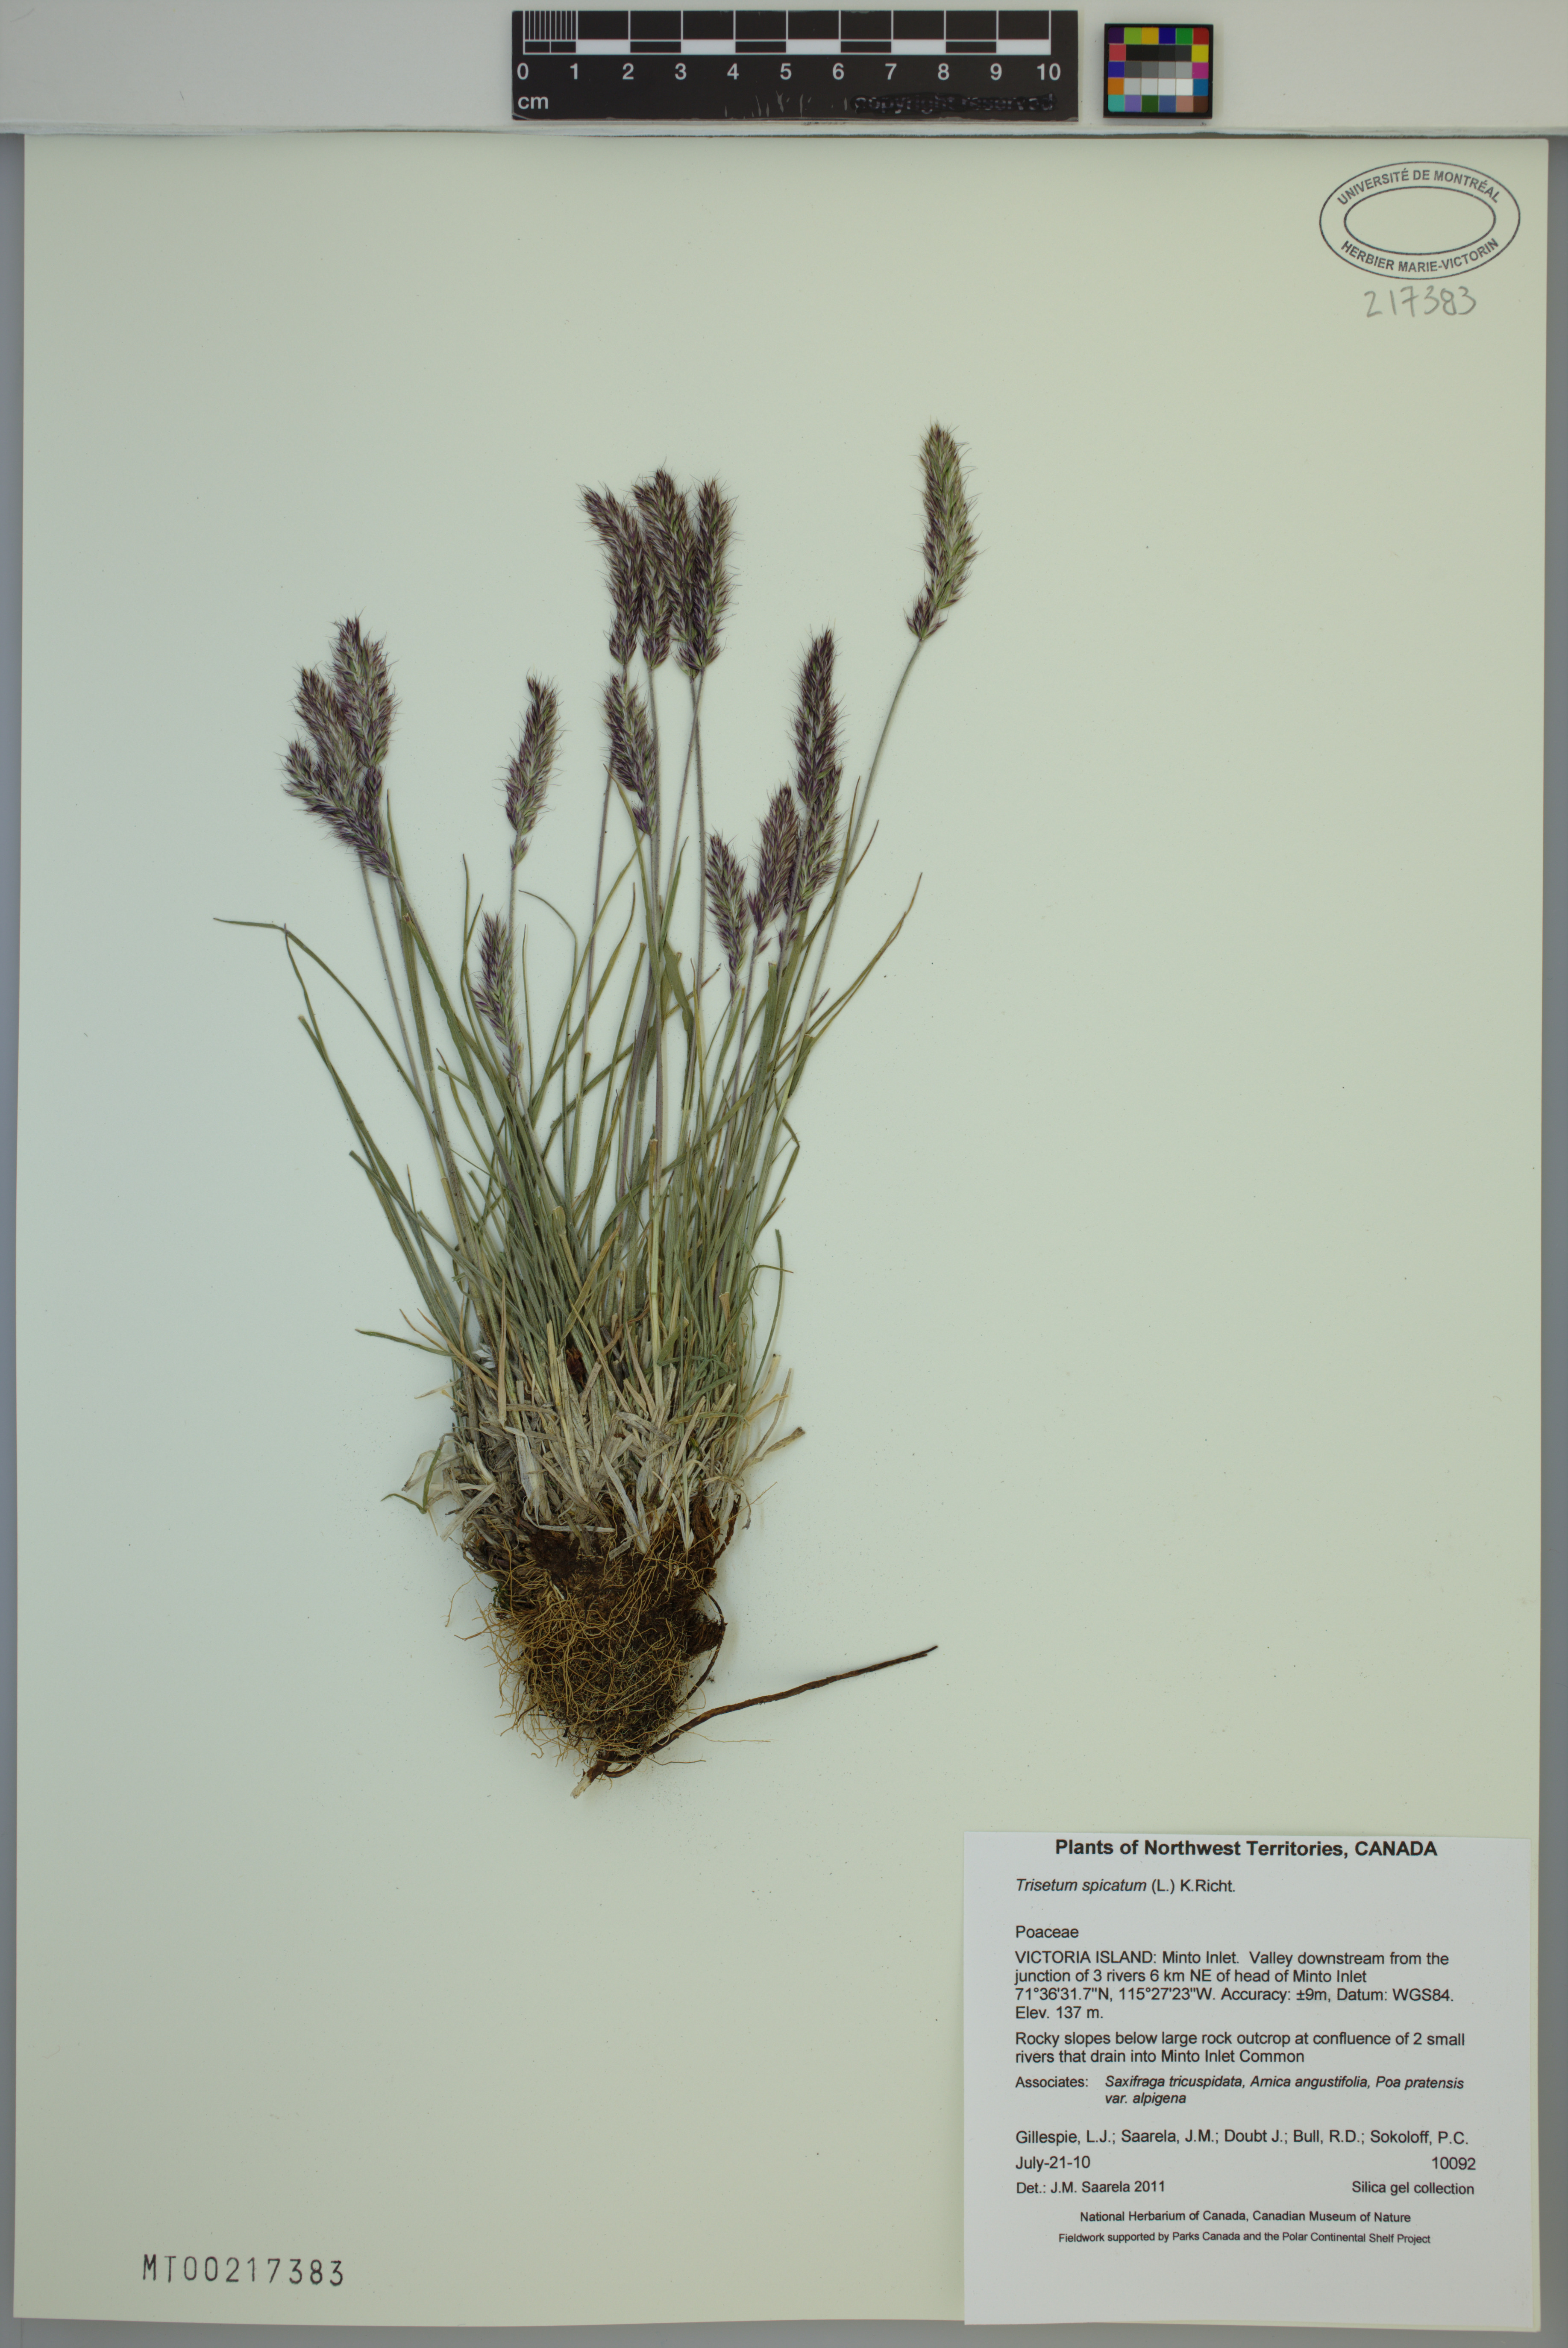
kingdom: Plantae
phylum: Tracheophyta
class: Liliopsida
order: Poales
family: Poaceae
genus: Koeleria
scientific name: Koeleria spicata
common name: Mountain trisetum
